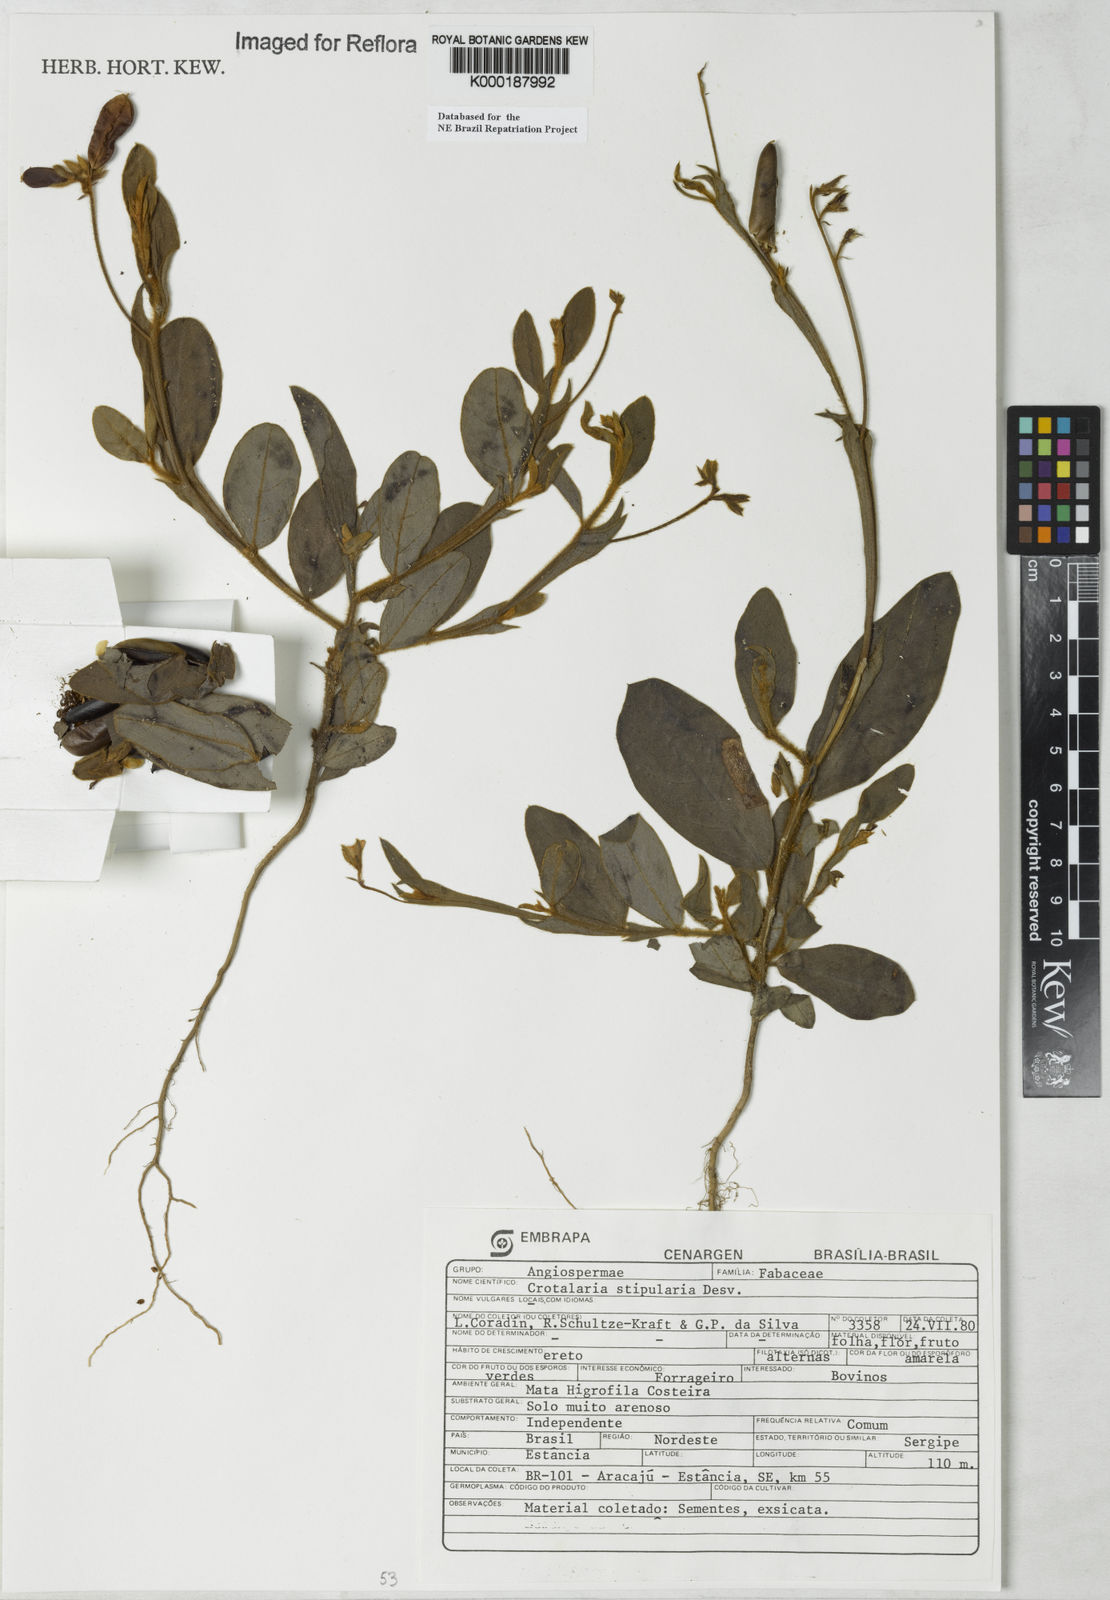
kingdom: Plantae
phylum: Tracheophyta
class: Magnoliopsida
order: Fabales
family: Fabaceae
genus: Crotalaria
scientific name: Crotalaria stipularia
